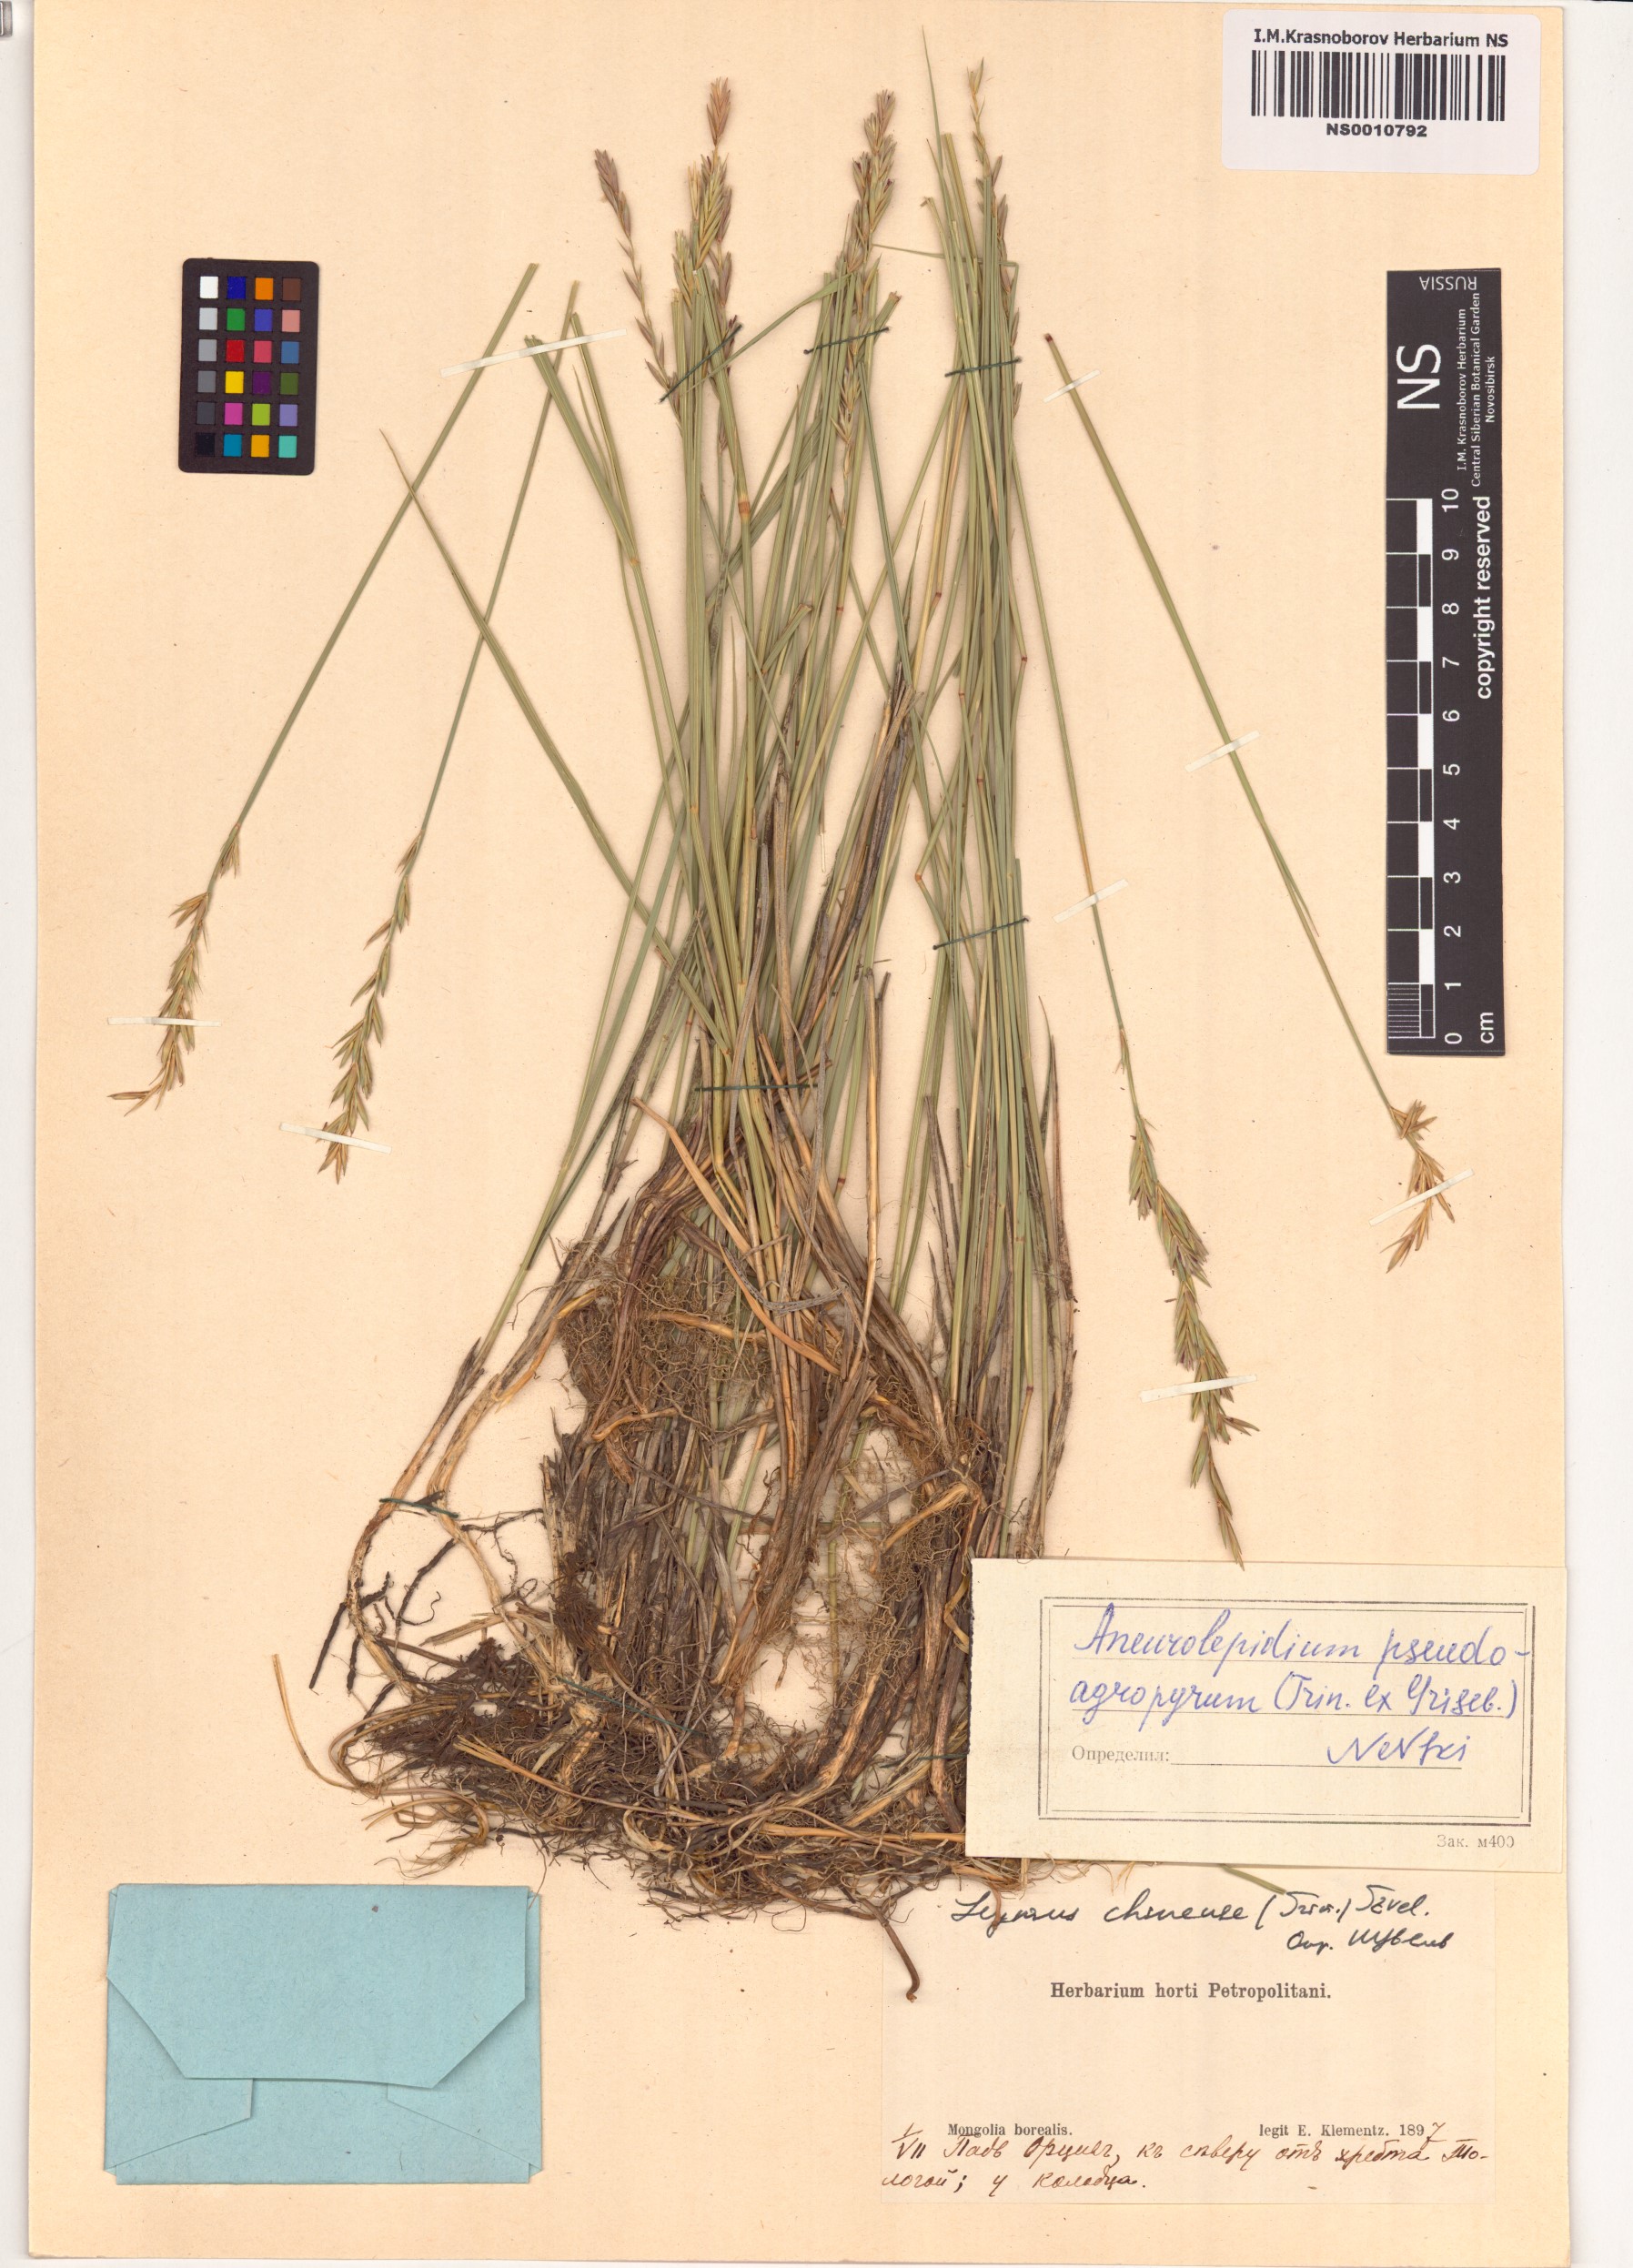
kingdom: Plantae
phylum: Tracheophyta
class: Liliopsida
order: Poales
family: Poaceae
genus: Leymus
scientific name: Leymus chinensis
